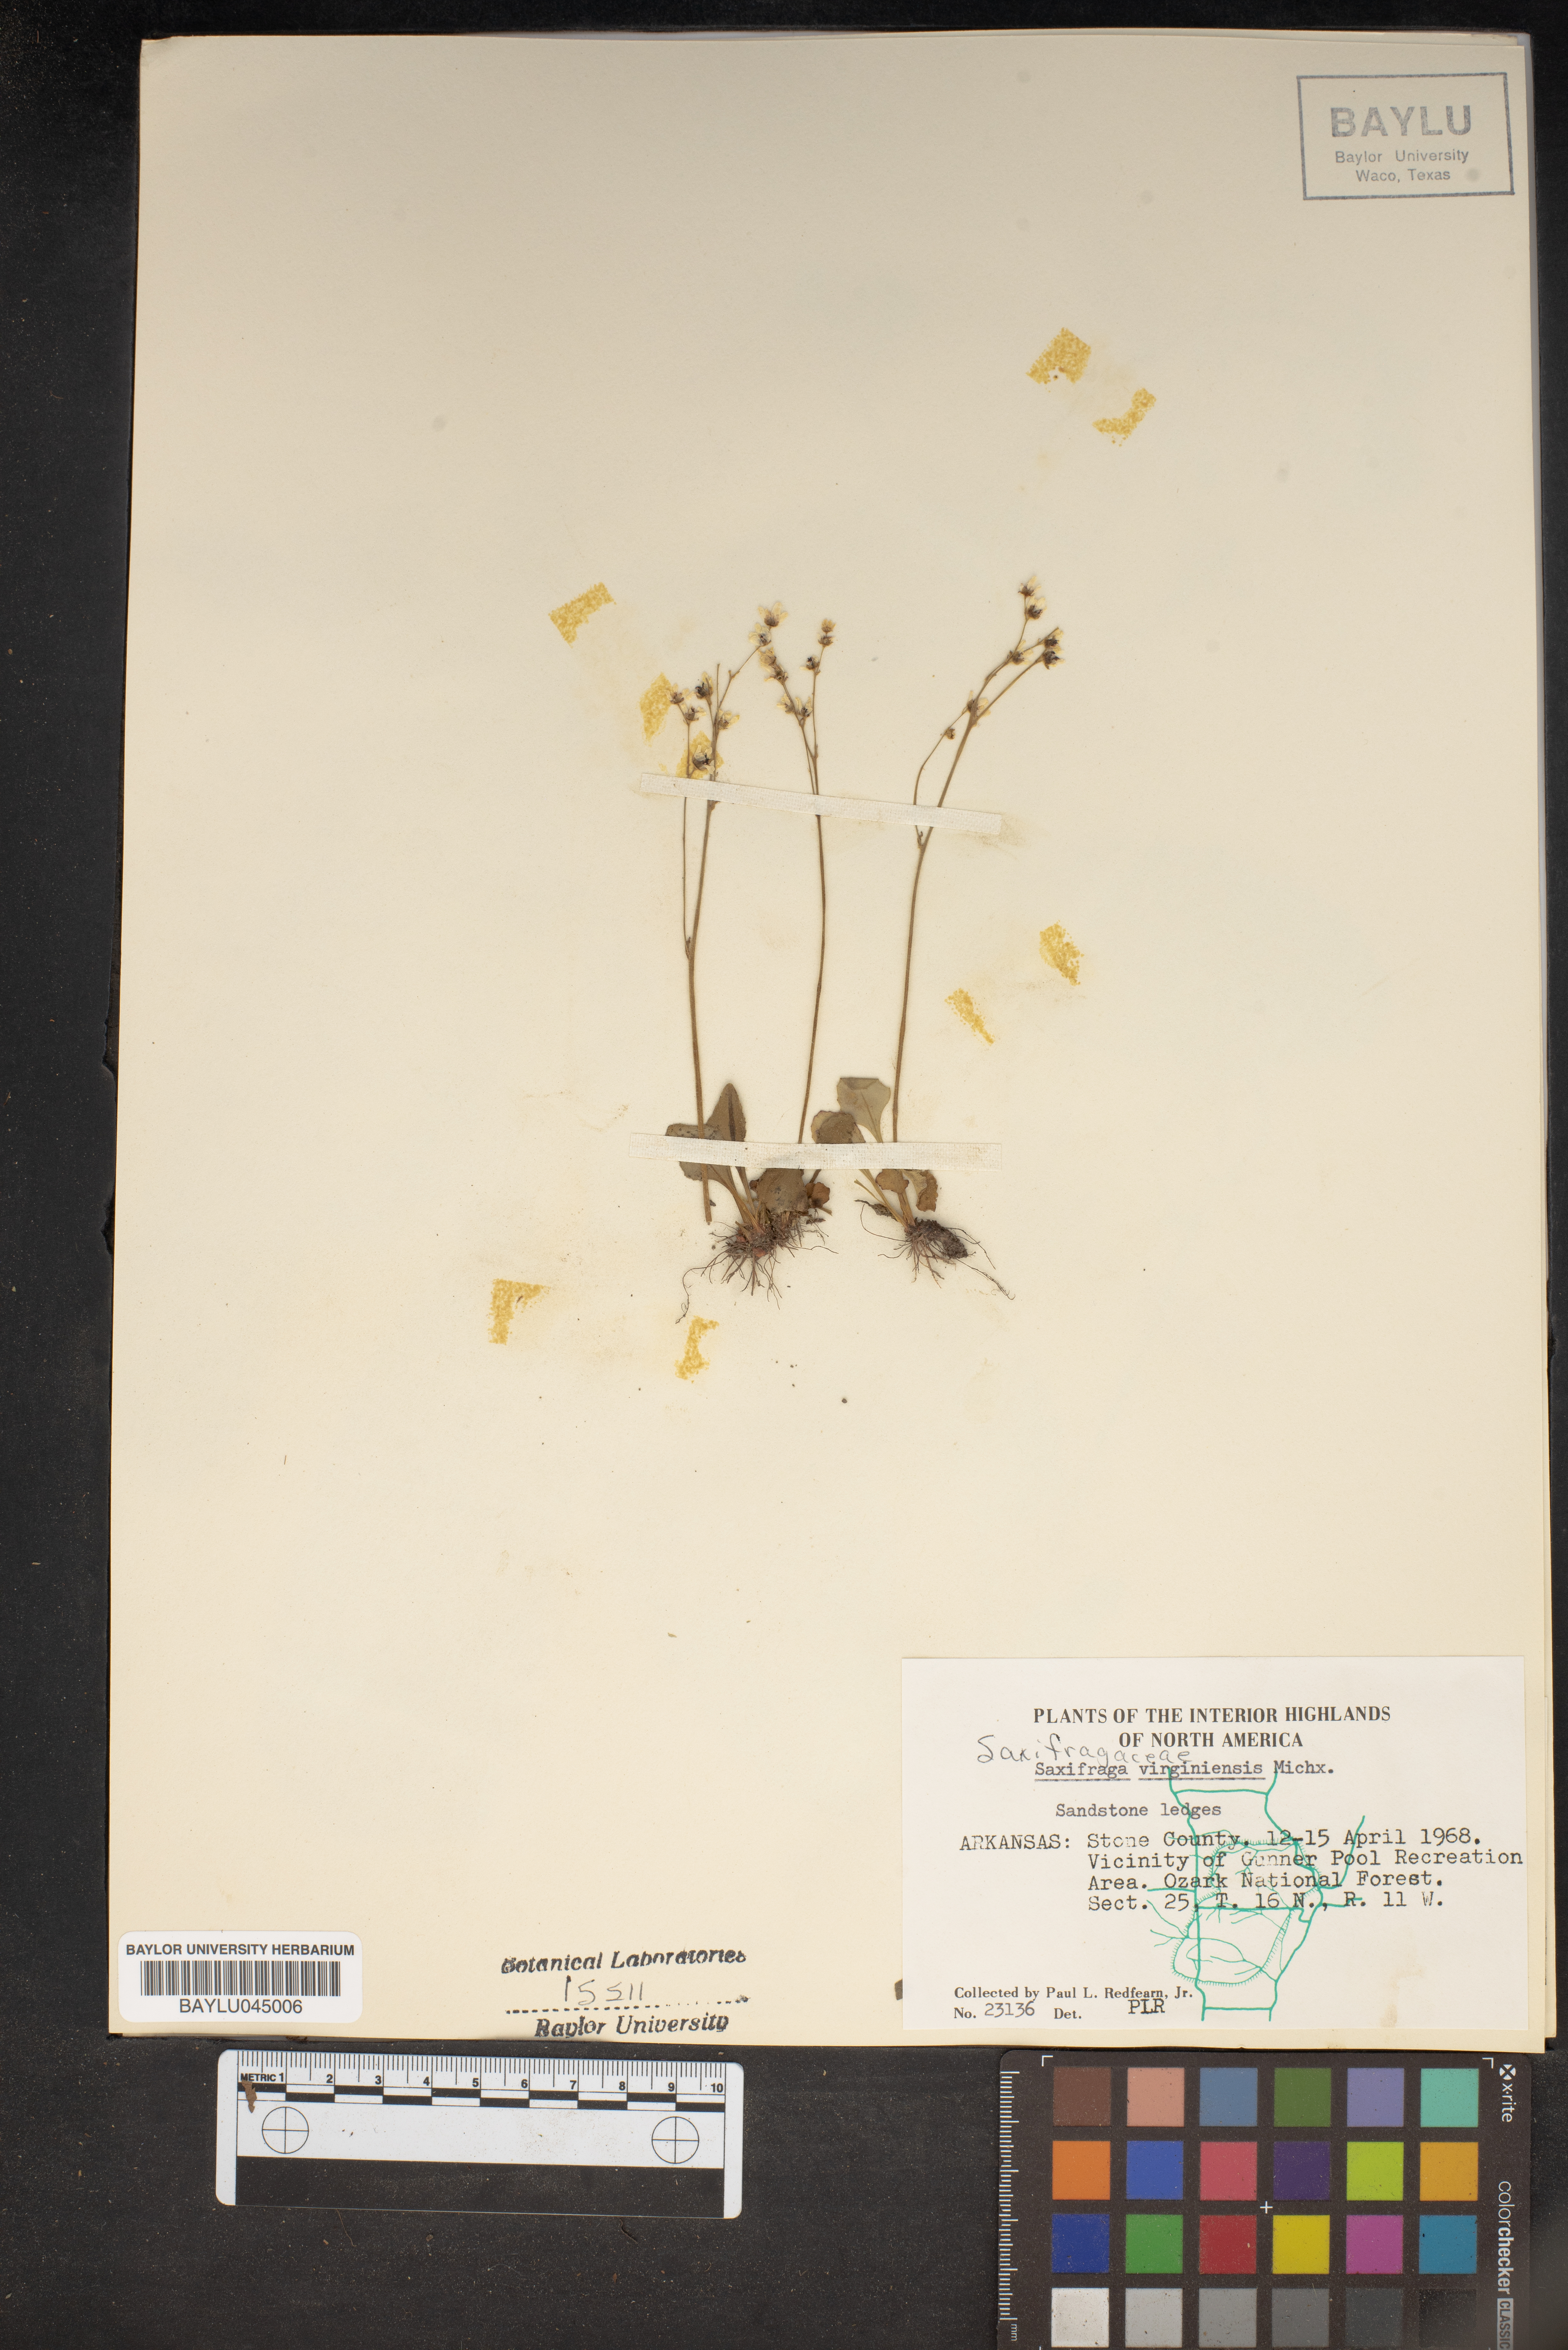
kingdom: Plantae
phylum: Tracheophyta
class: Magnoliopsida
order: Saxifragales
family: Saxifragaceae
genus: Micranthes
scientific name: Micranthes virginiensis
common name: Early saxifrage
